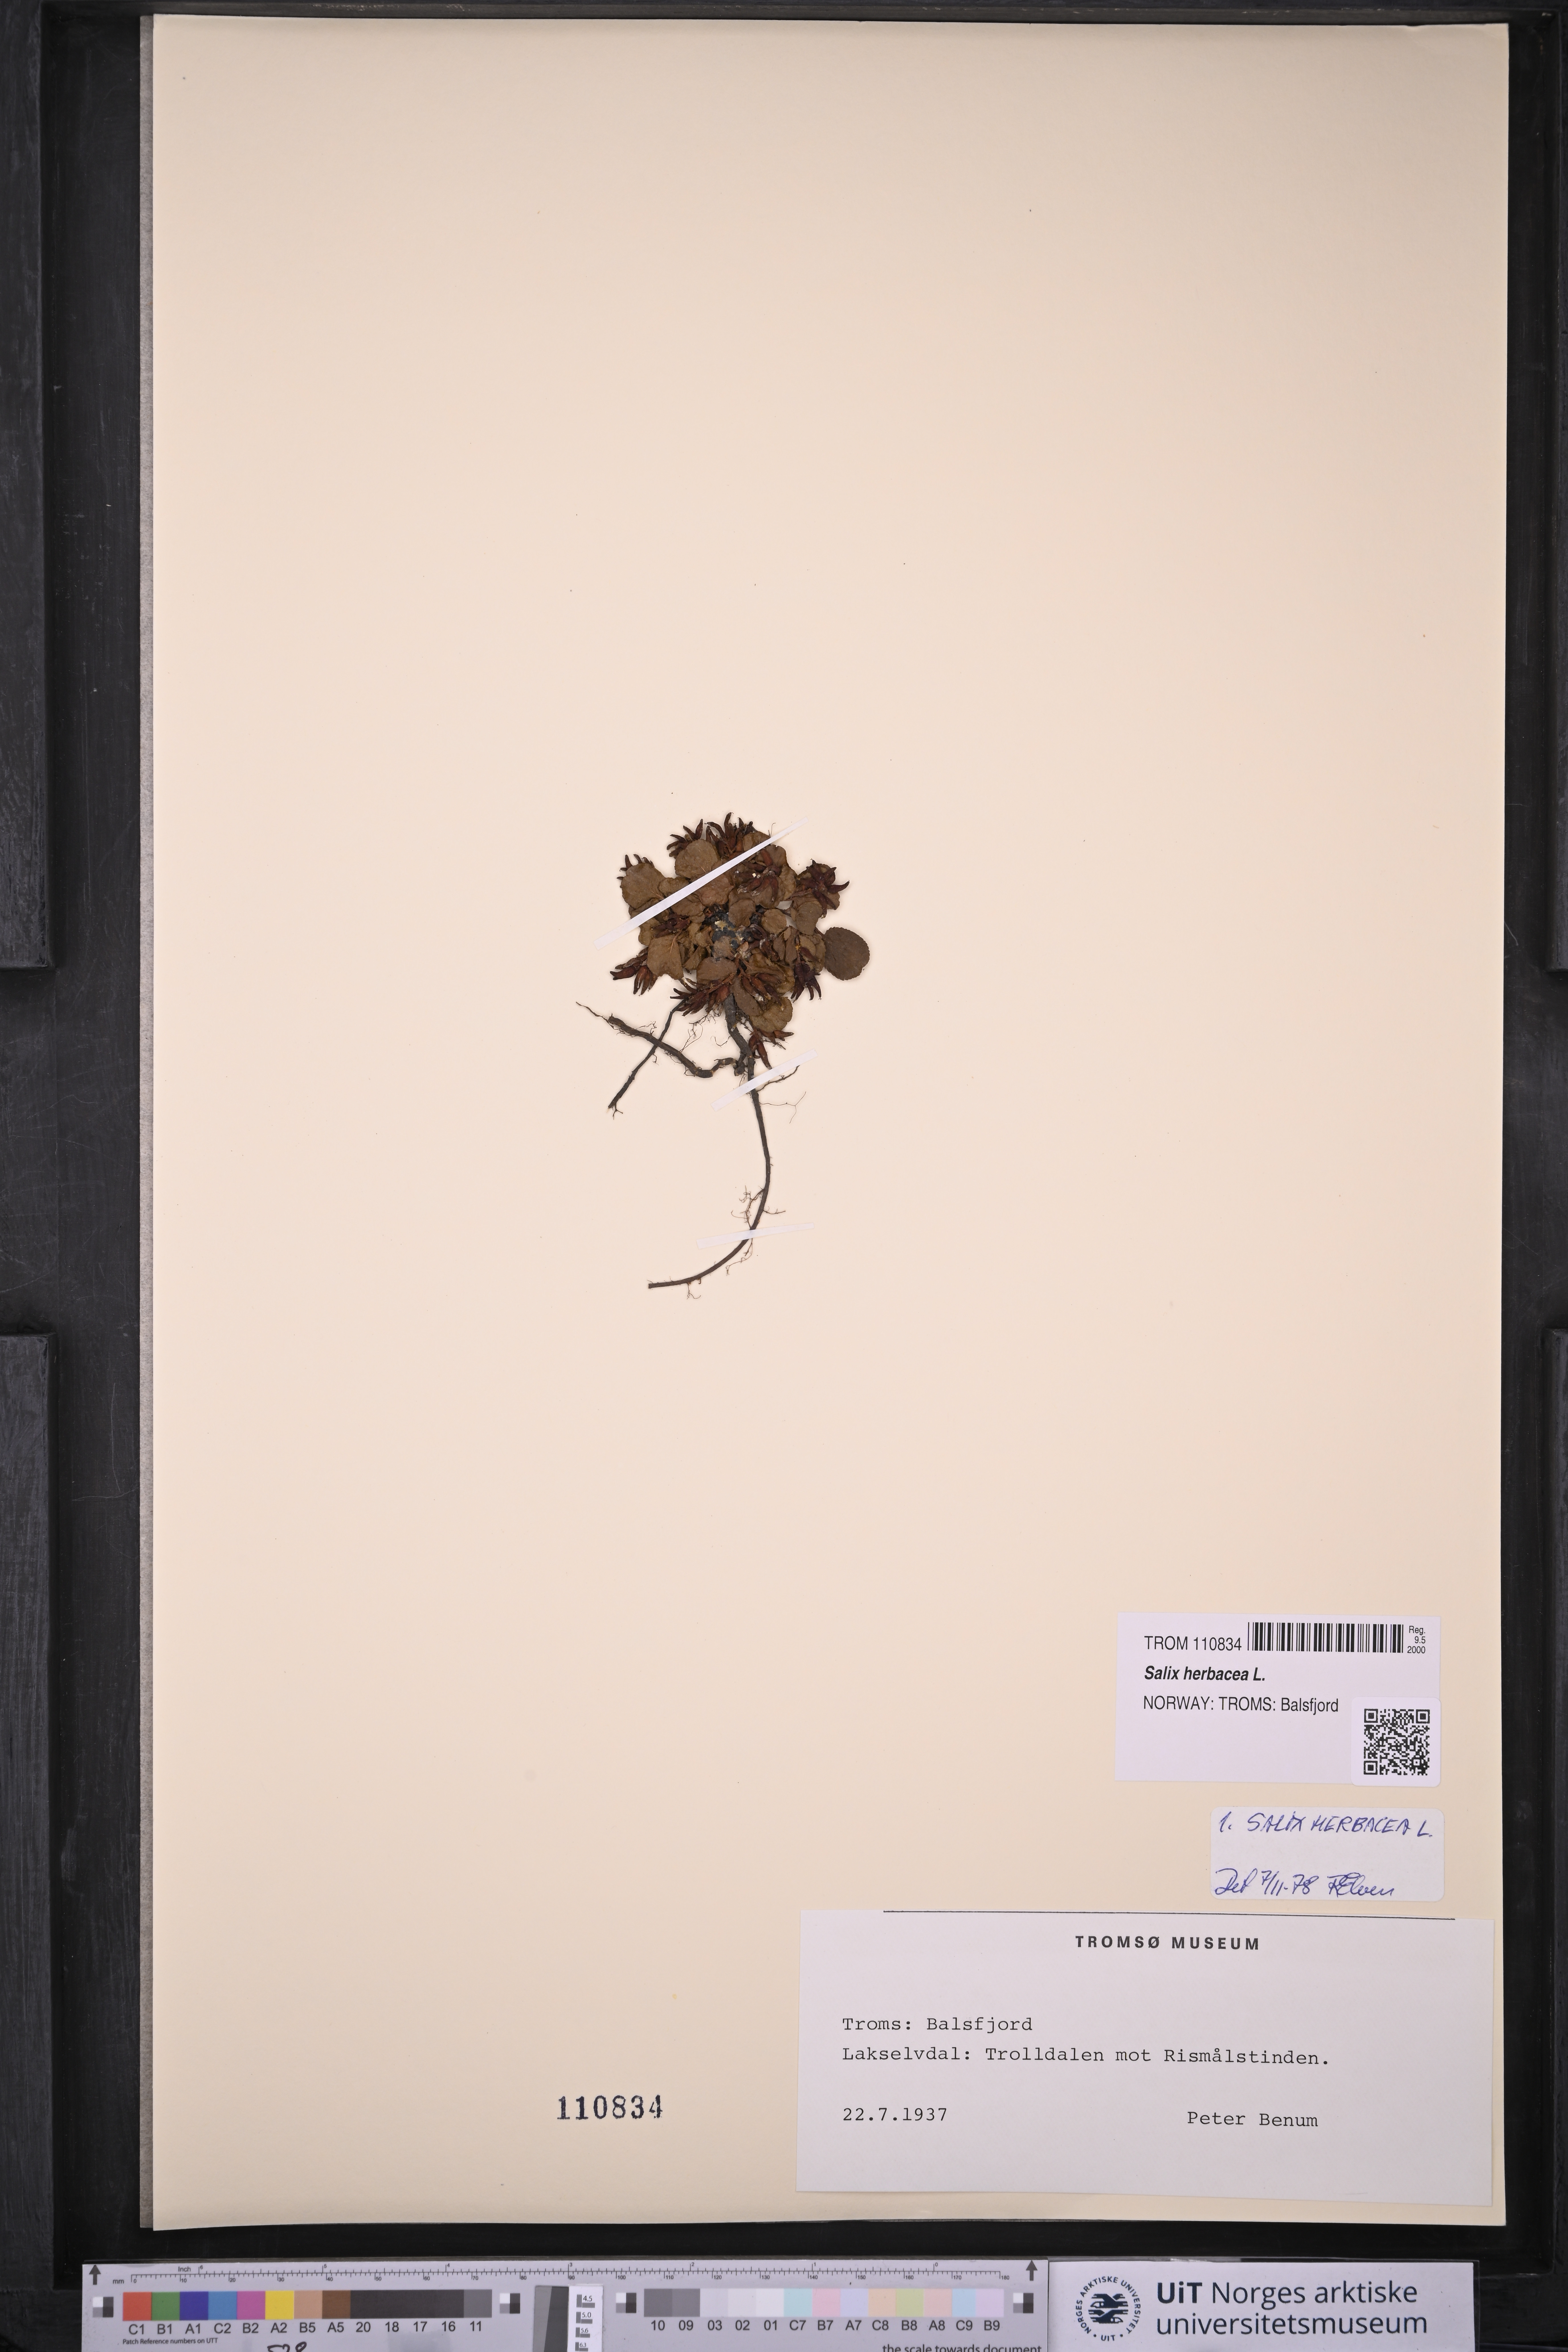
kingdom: Plantae
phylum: Tracheophyta
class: Magnoliopsida
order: Malpighiales
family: Salicaceae
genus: Salix
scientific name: Salix herbacea
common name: Dwarf willow
